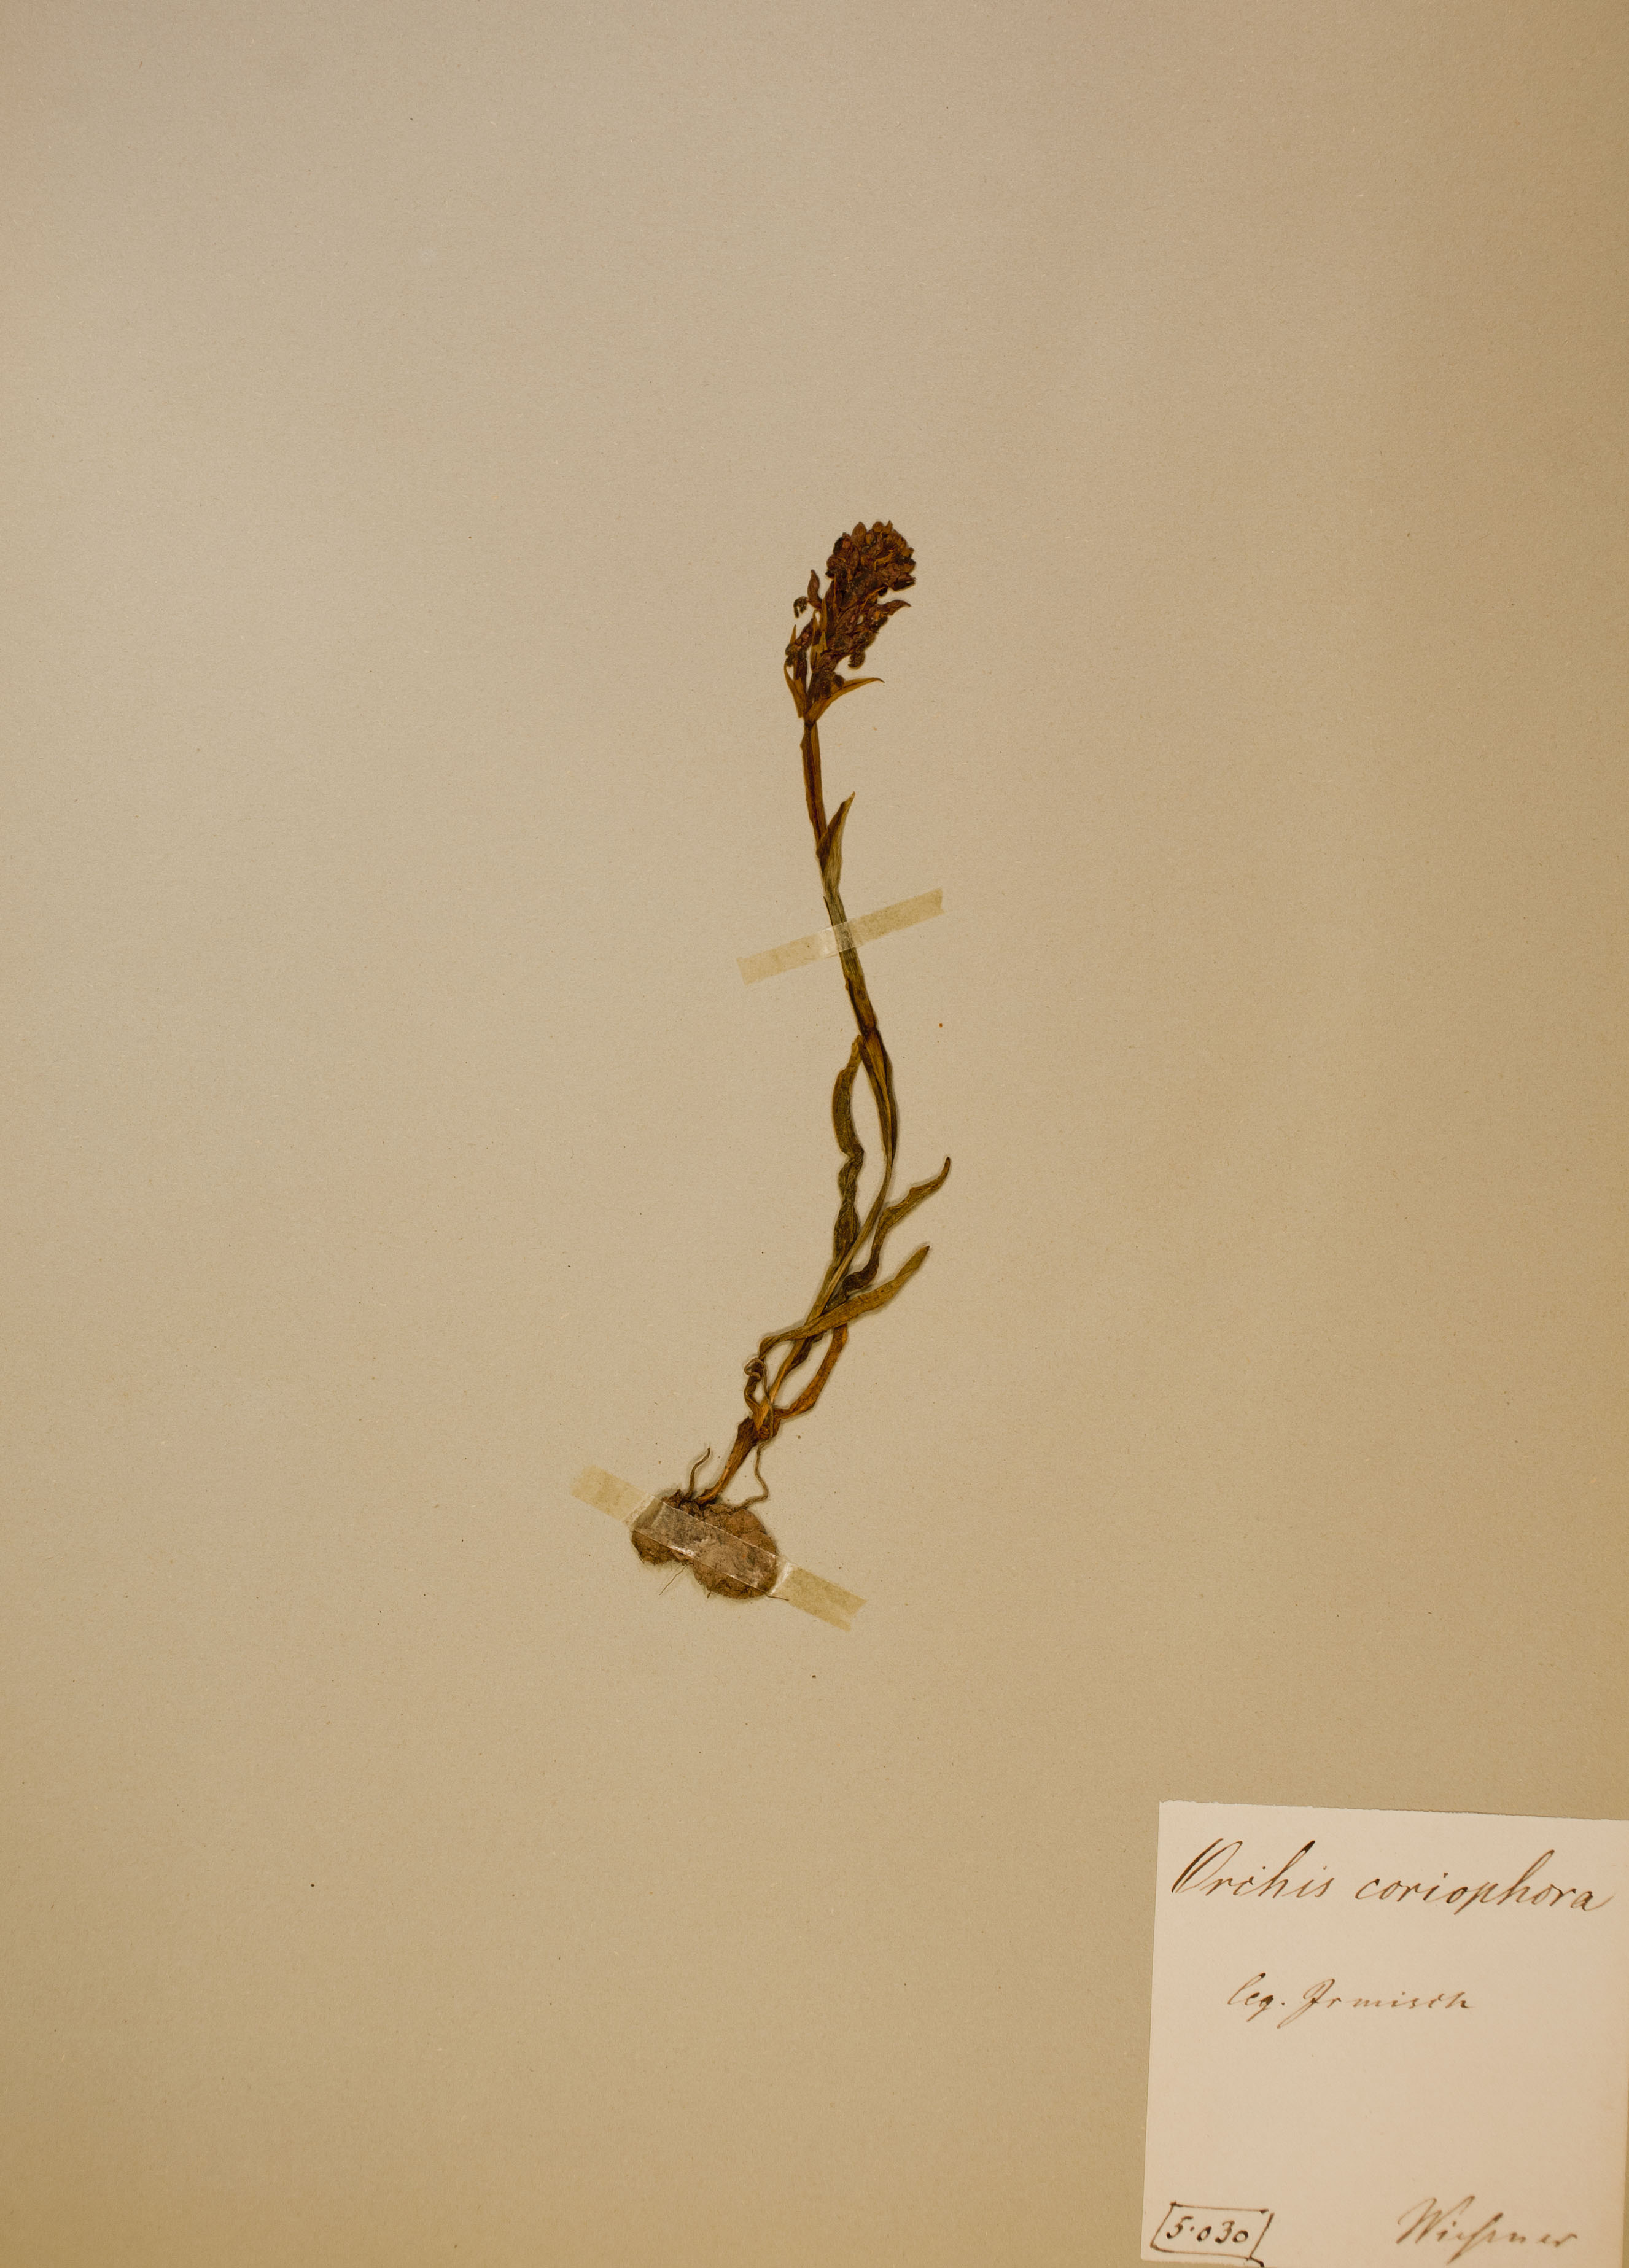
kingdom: Plantae
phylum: Tracheophyta
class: Liliopsida
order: Asparagales
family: Orchidaceae
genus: Anacamptis
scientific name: Anacamptis coriophora
